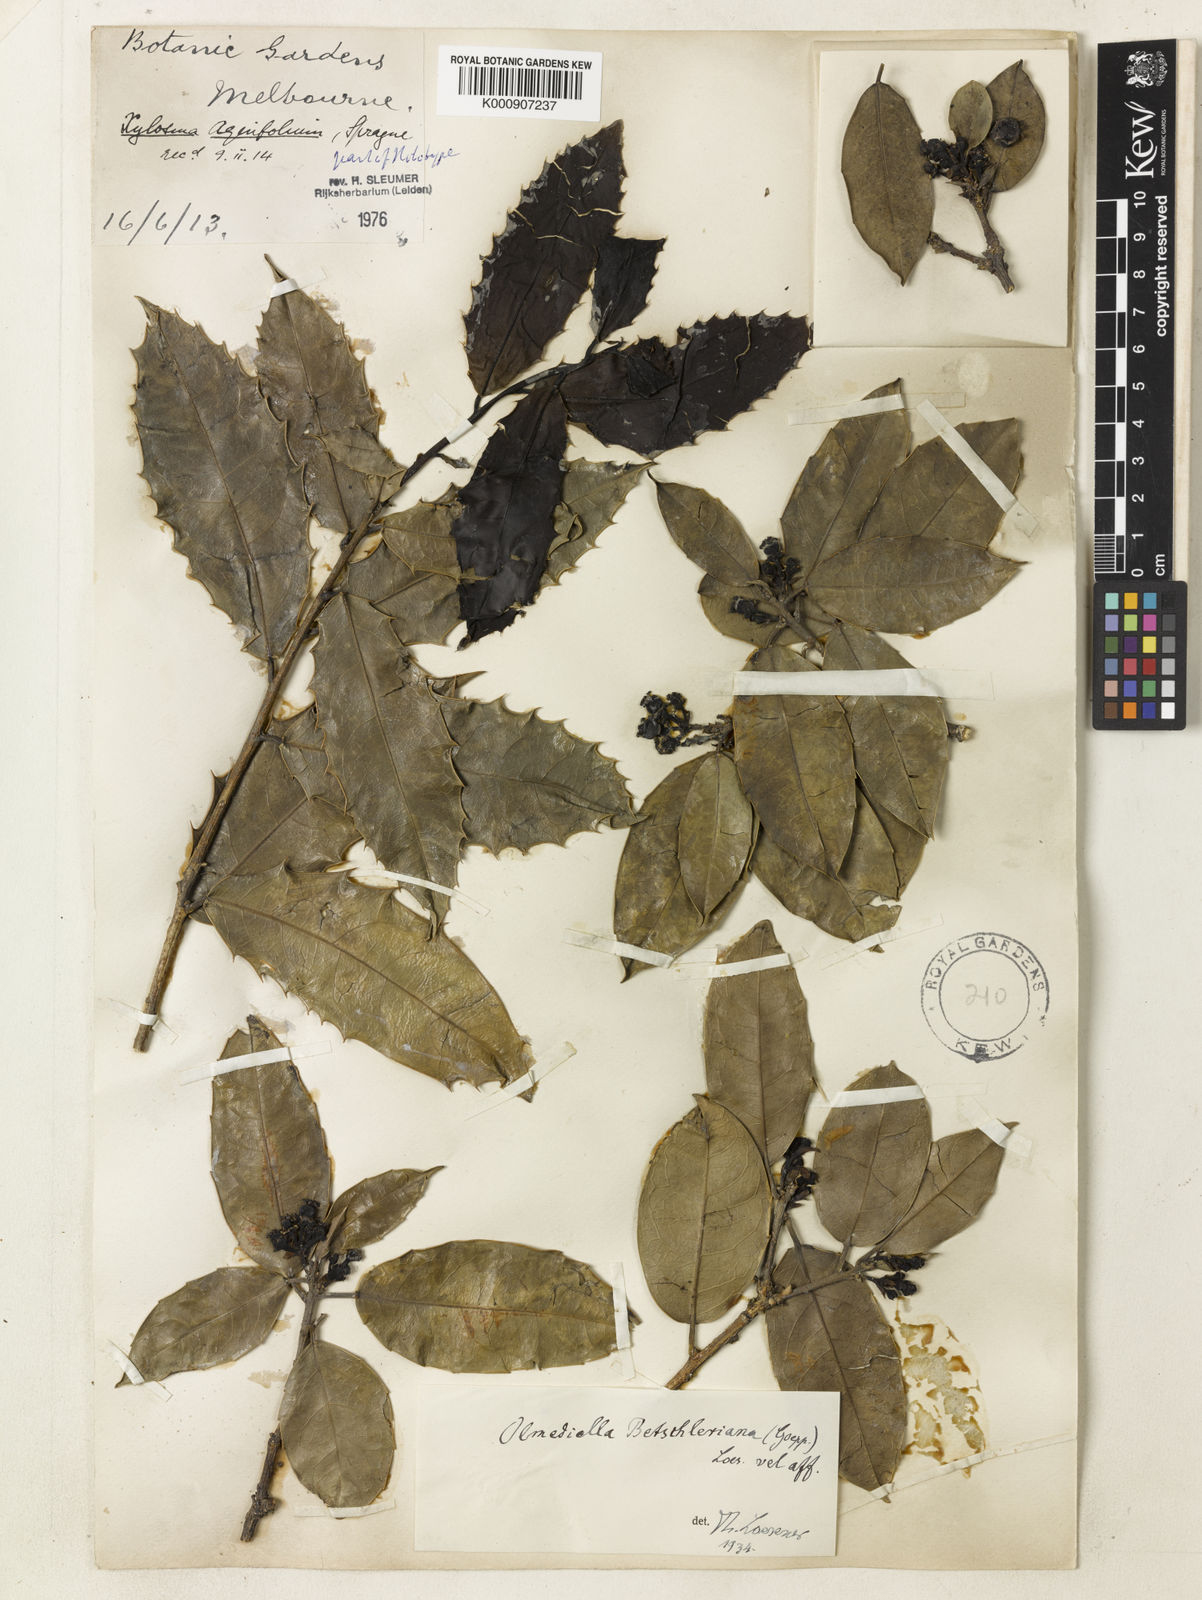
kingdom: Plantae
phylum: Tracheophyta
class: Magnoliopsida
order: Malpighiales
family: Salicaceae
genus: Olmediella
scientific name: Olmediella
